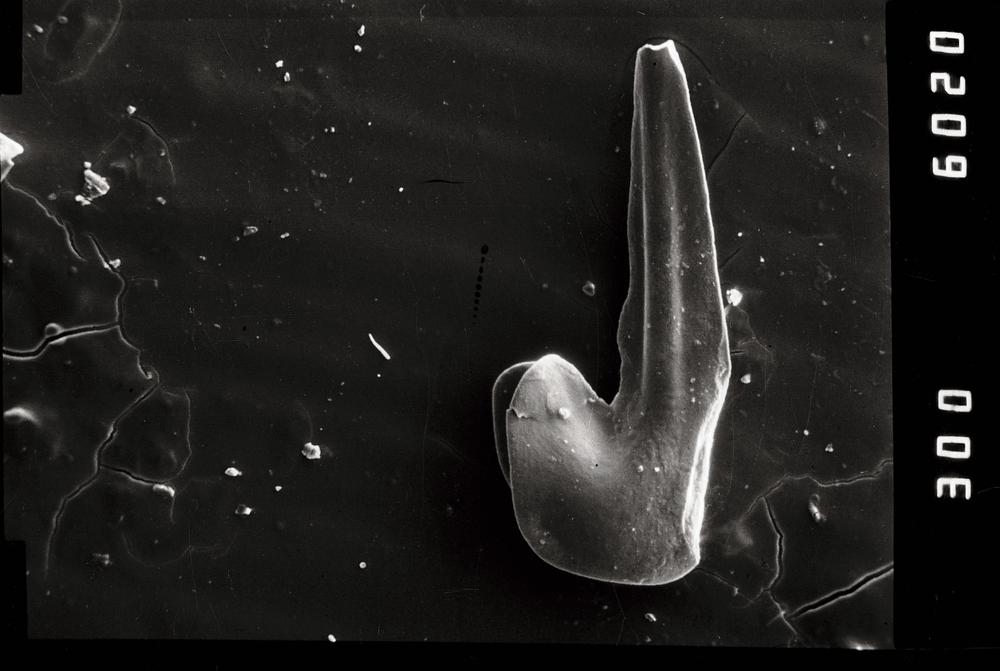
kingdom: Animalia
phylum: Chordata
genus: Paroistodus
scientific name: Paroistodus Drepanodus proteus
